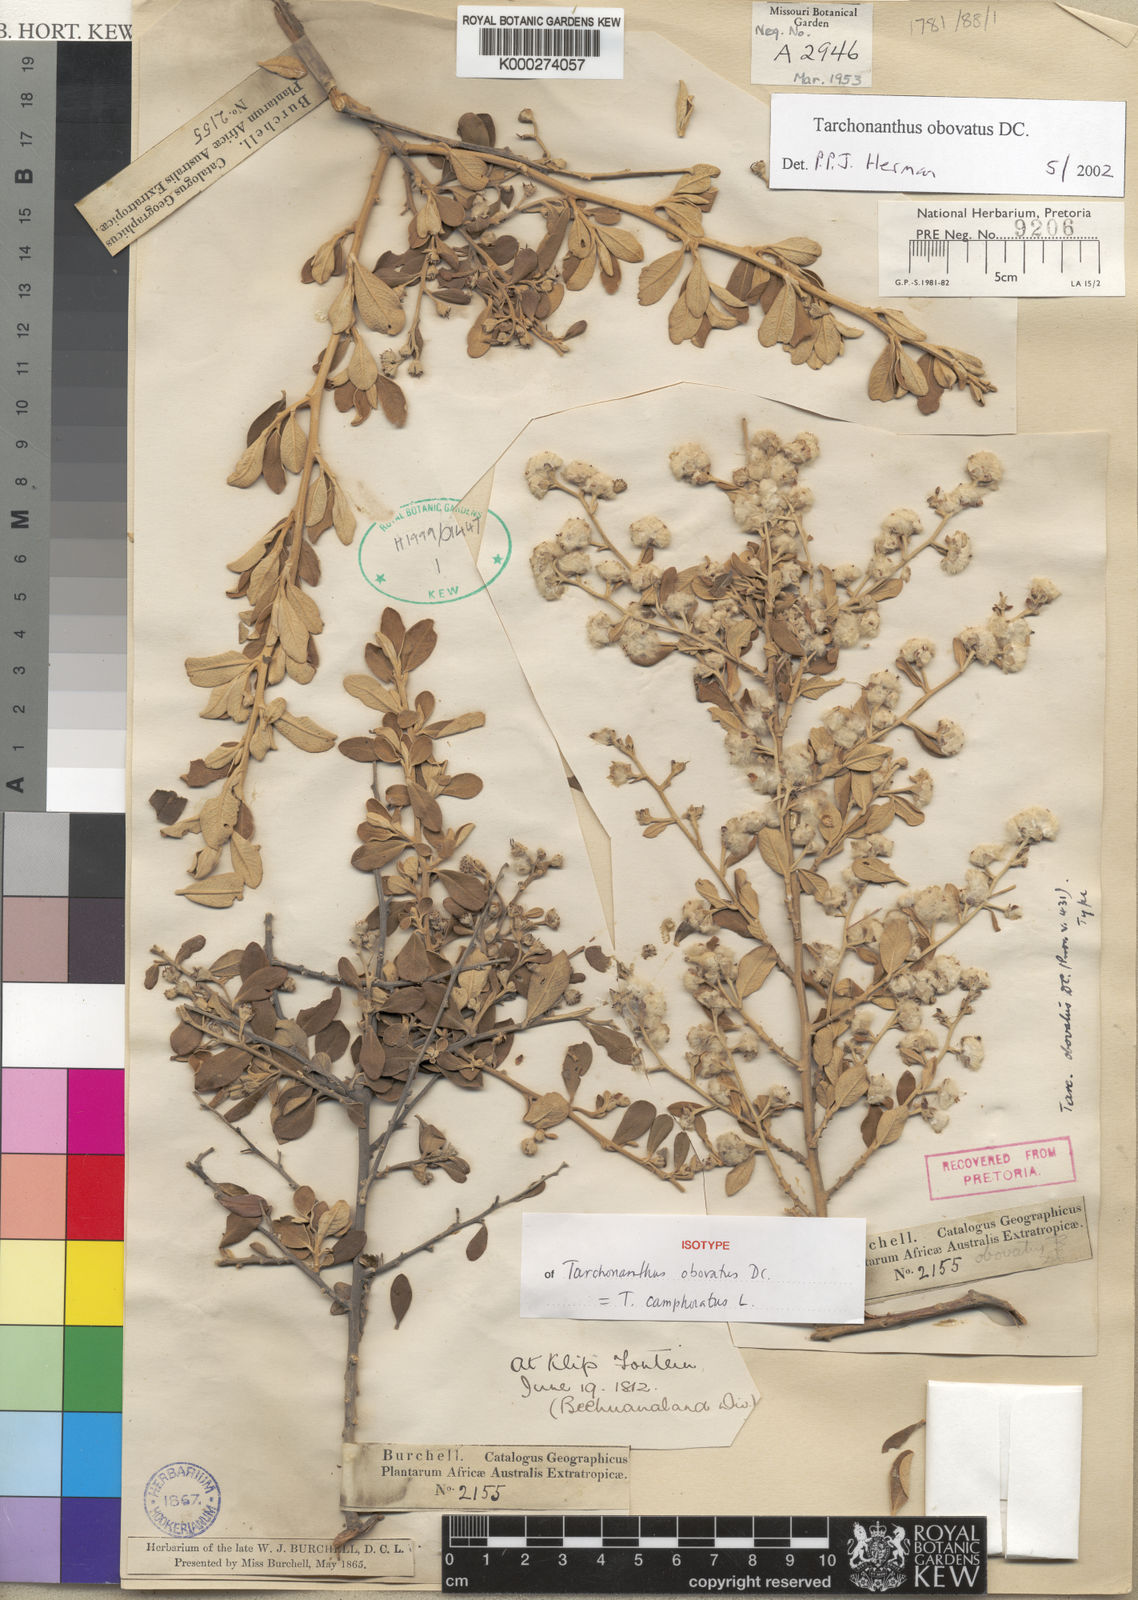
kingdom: Plantae
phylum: Tracheophyta
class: Magnoliopsida
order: Asterales
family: Asteraceae
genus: Tarchonanthus
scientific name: Tarchonanthus camphoratus
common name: Camphorwood
